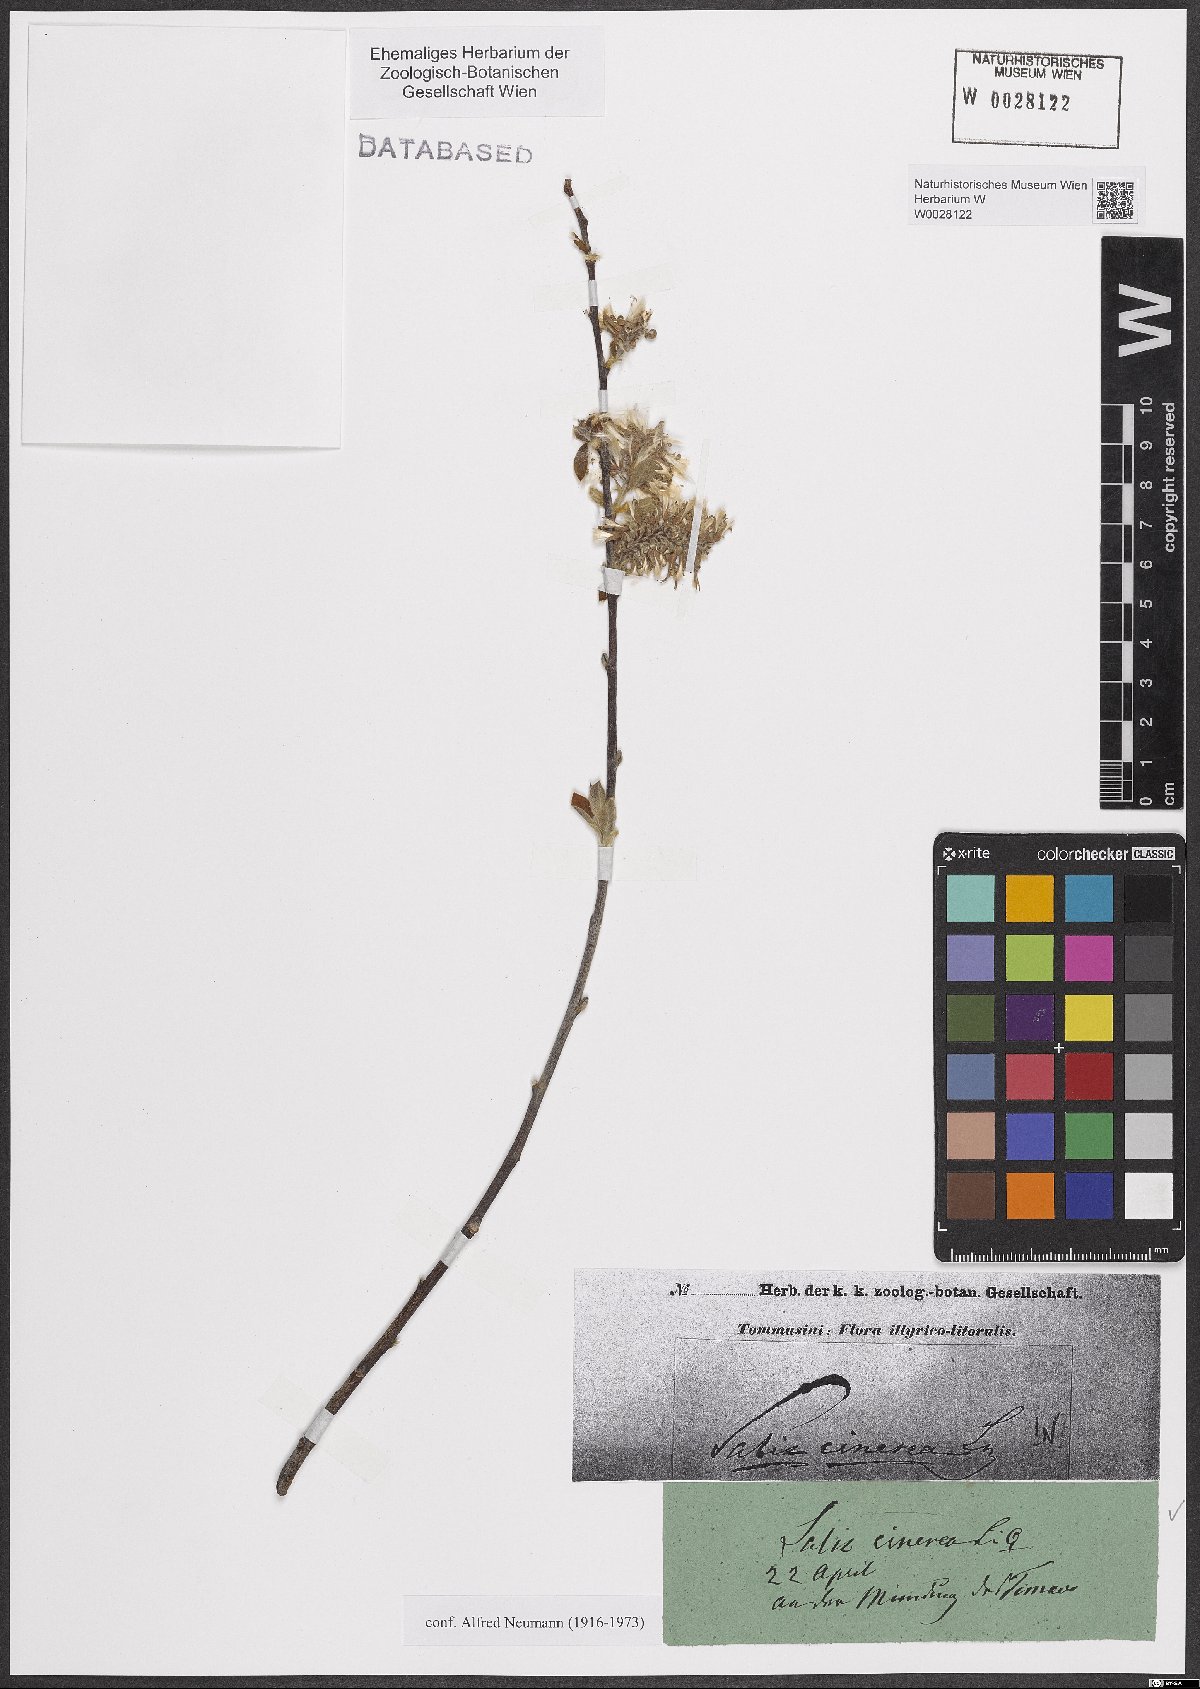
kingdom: Plantae
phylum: Tracheophyta
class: Magnoliopsida
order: Malpighiales
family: Salicaceae
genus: Salix
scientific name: Salix cinerea
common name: Common sallow
